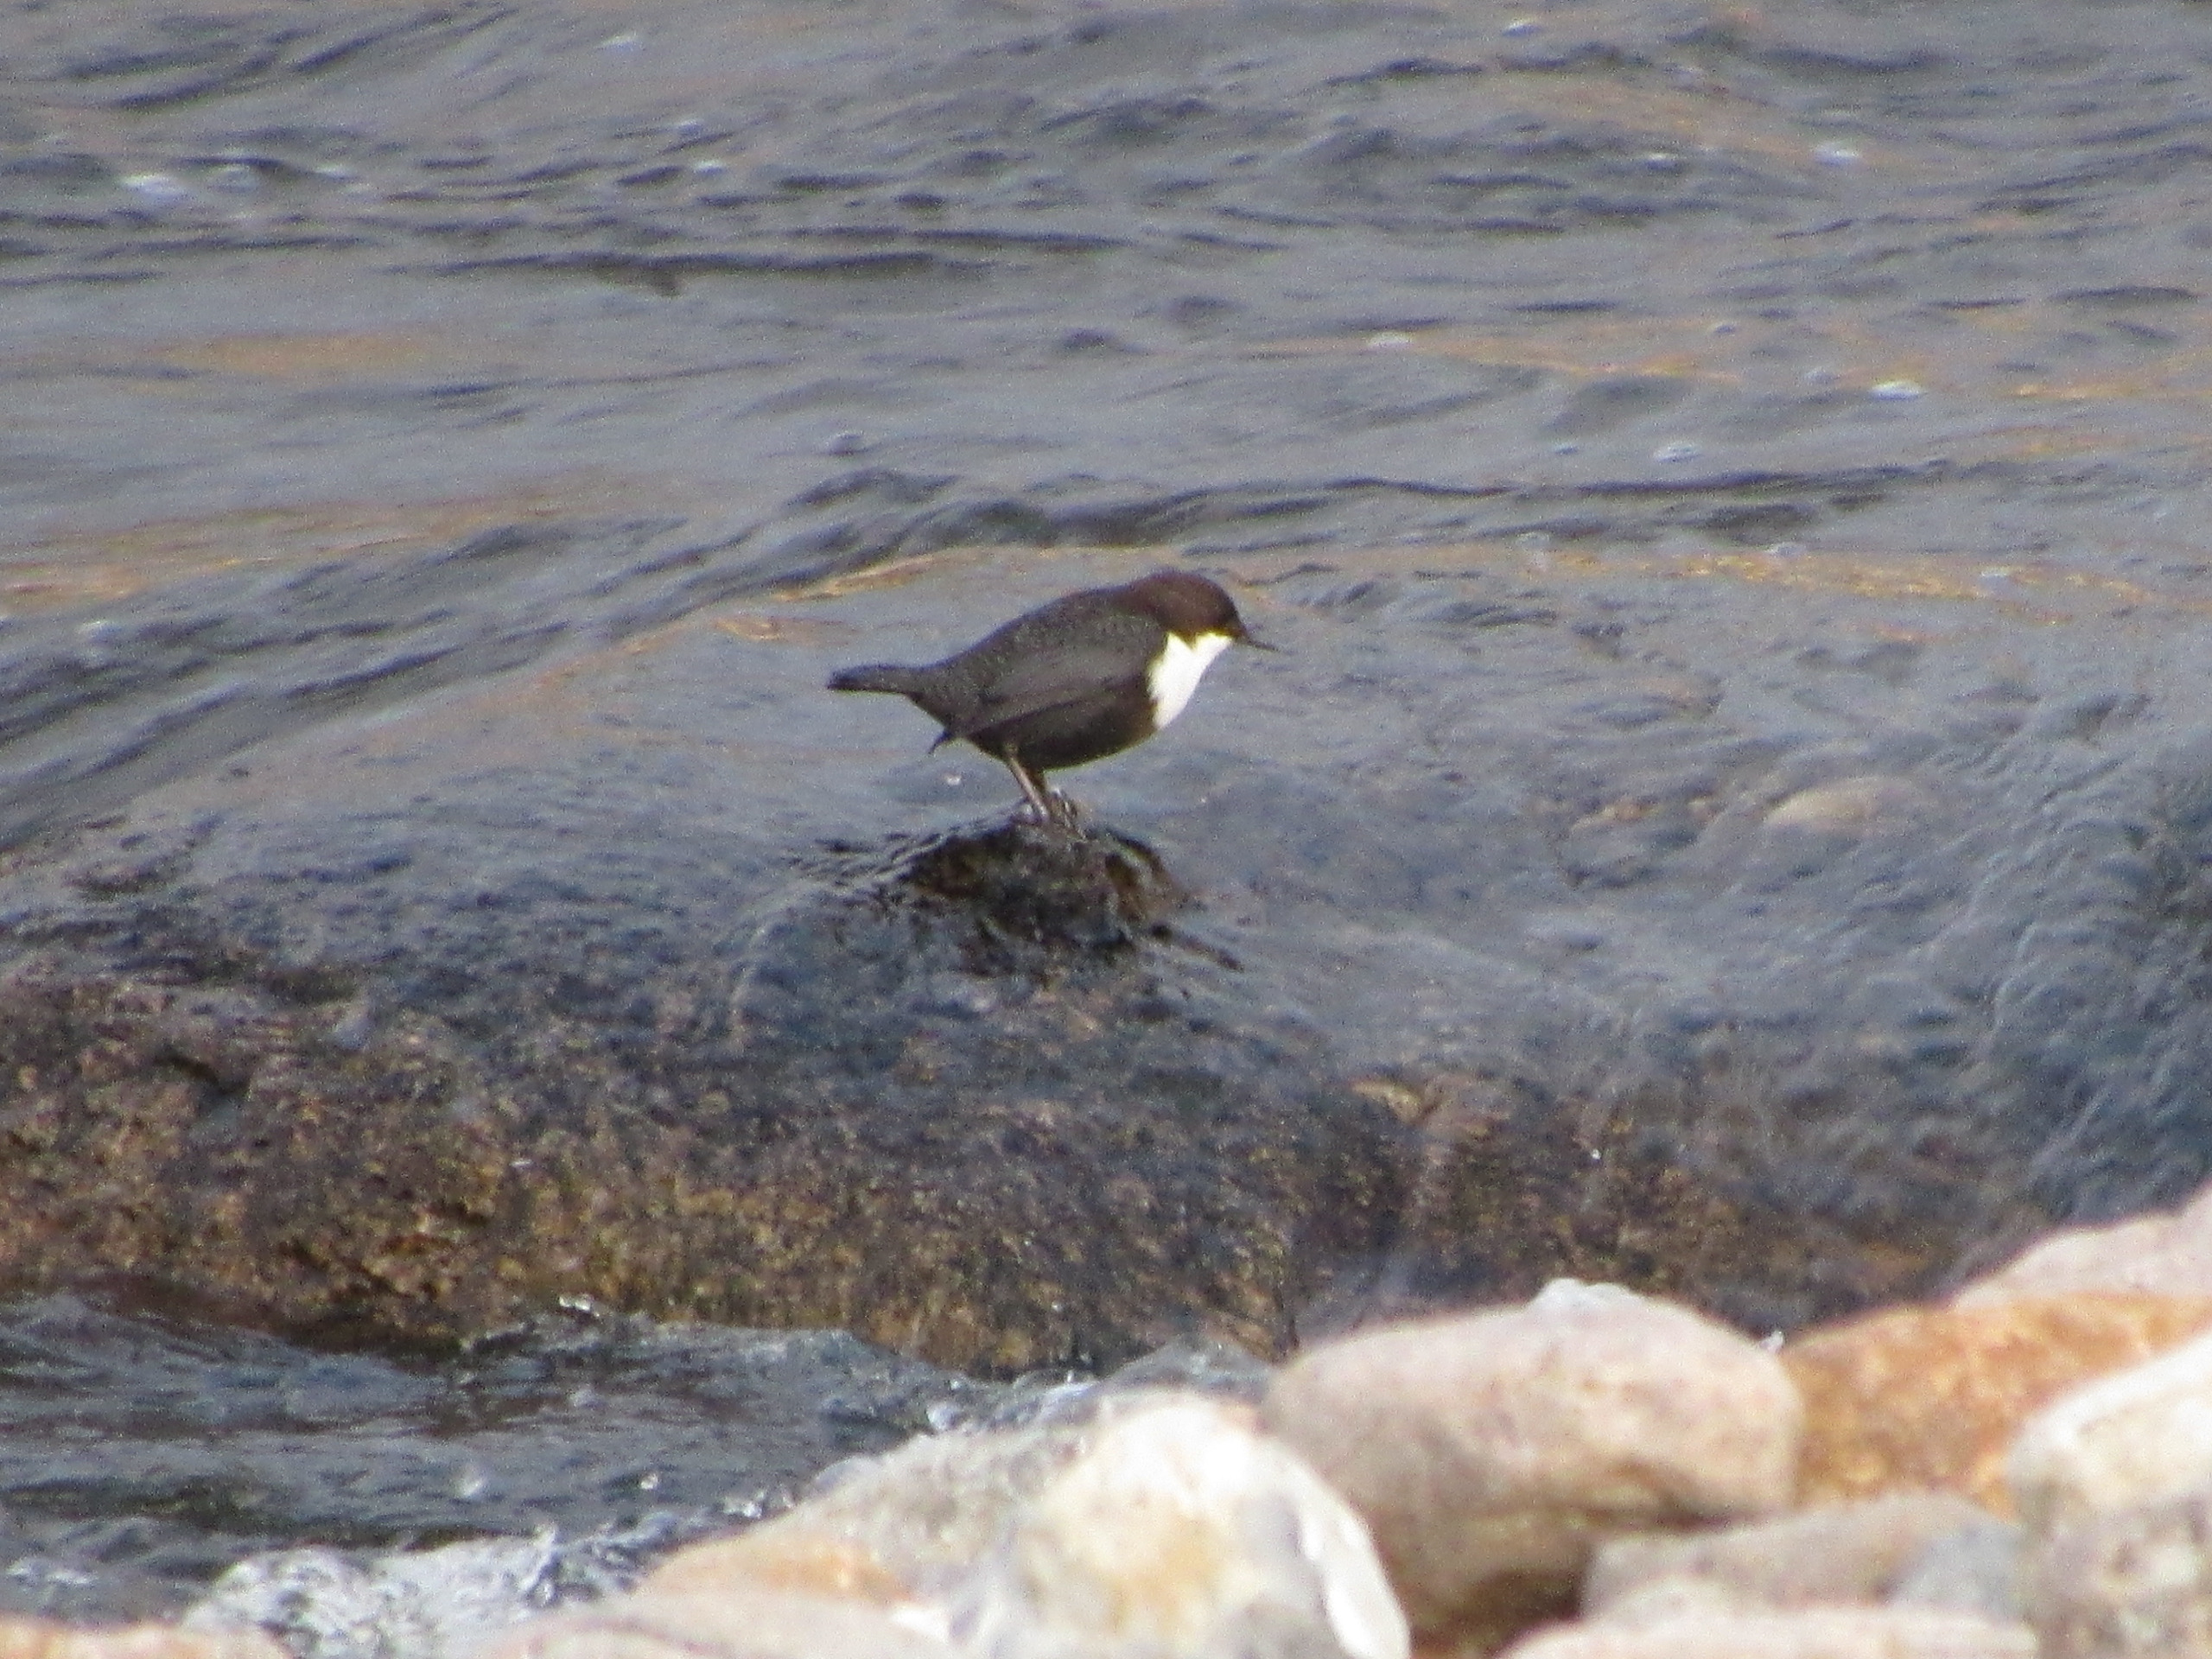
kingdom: Animalia
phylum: Chordata
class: Aves
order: Passeriformes
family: Cinclidae
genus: Cinclus
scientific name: Cinclus cinclus
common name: Vandstær
